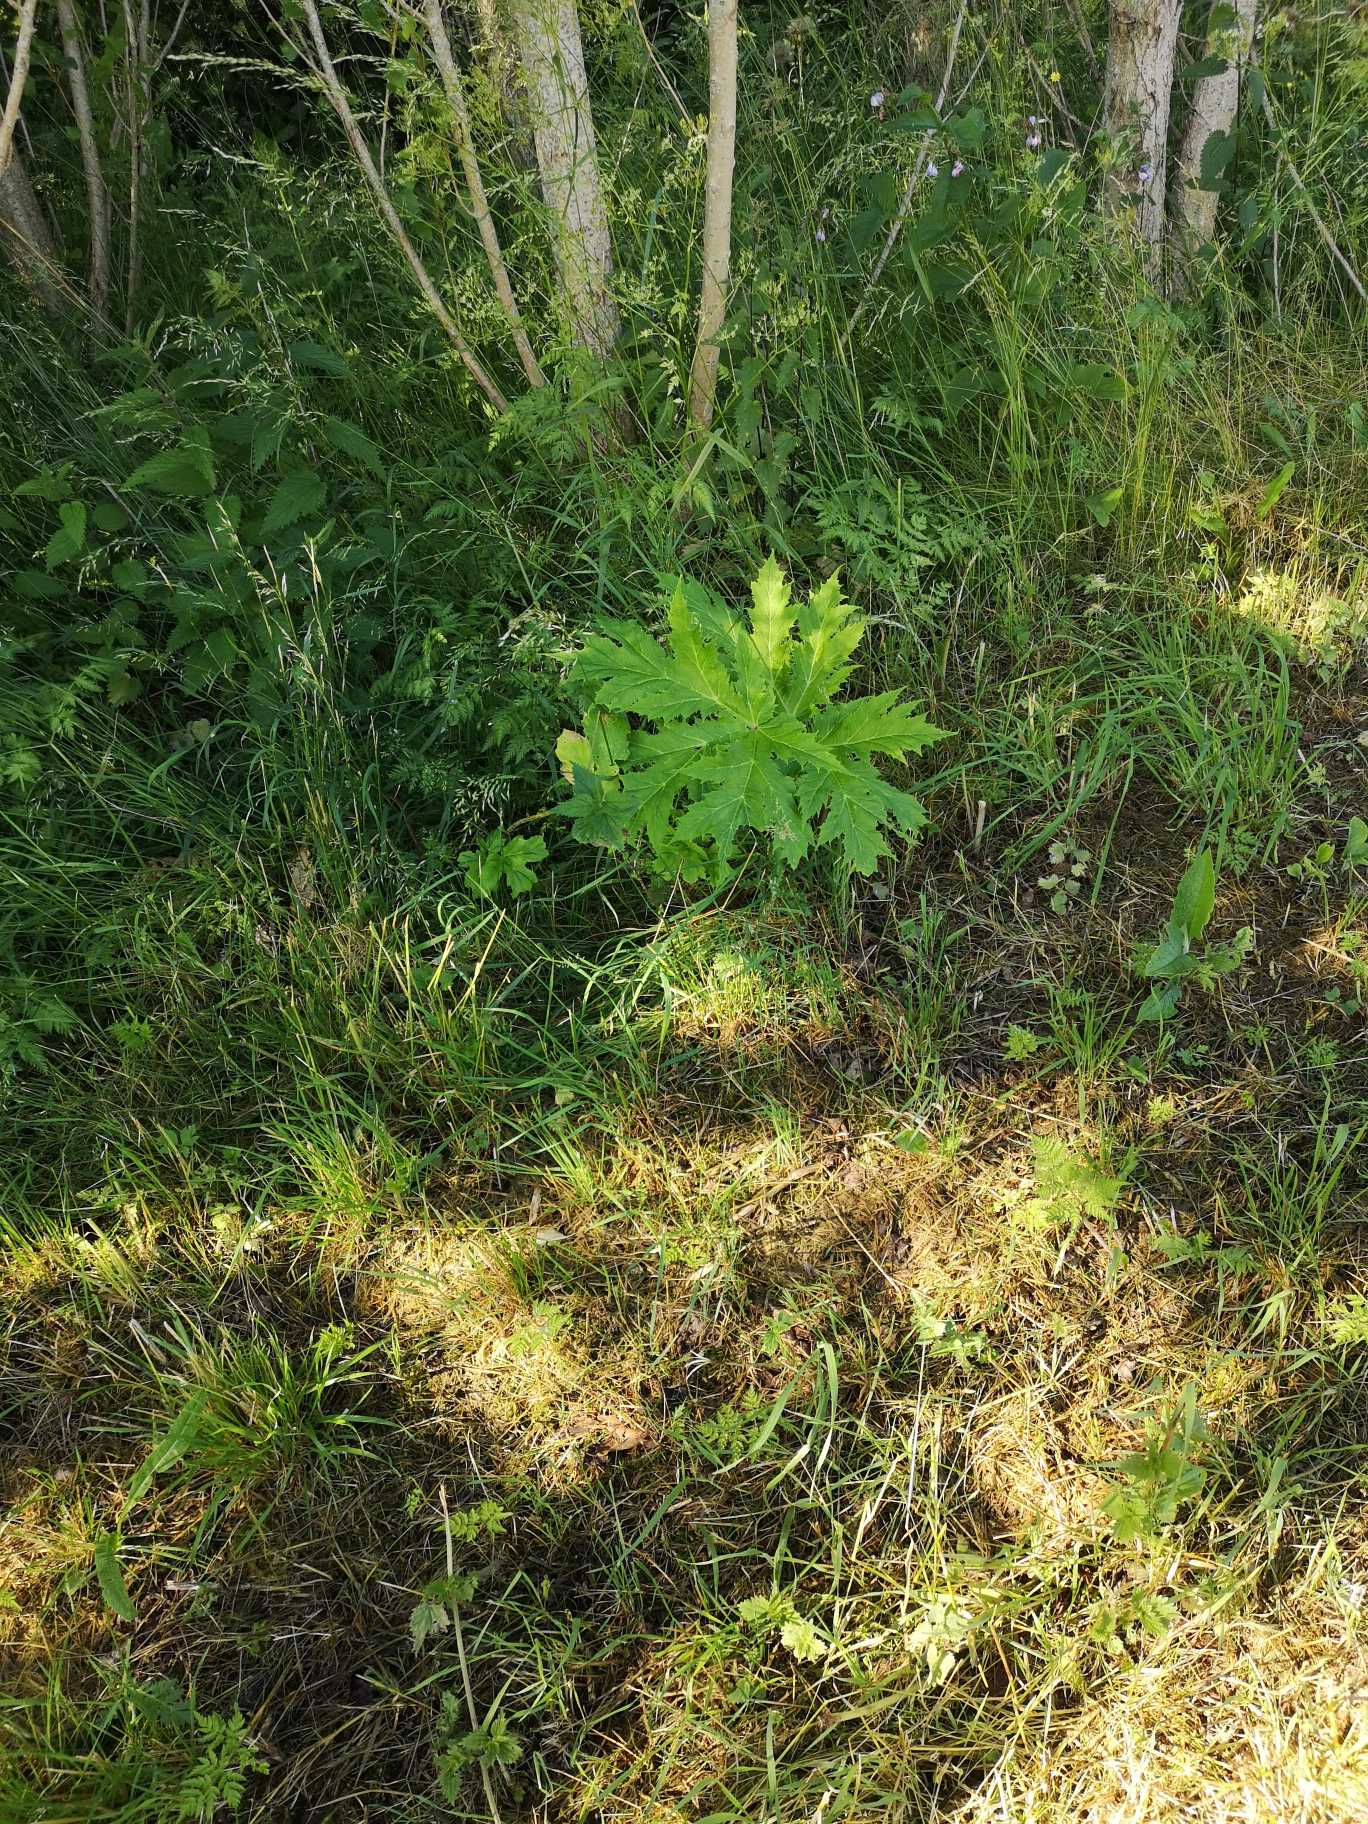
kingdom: Plantae
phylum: Tracheophyta
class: Magnoliopsida
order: Apiales
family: Apiaceae
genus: Heracleum
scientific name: Heracleum mantegazzianum
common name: Kæmpe-bjørneklo
